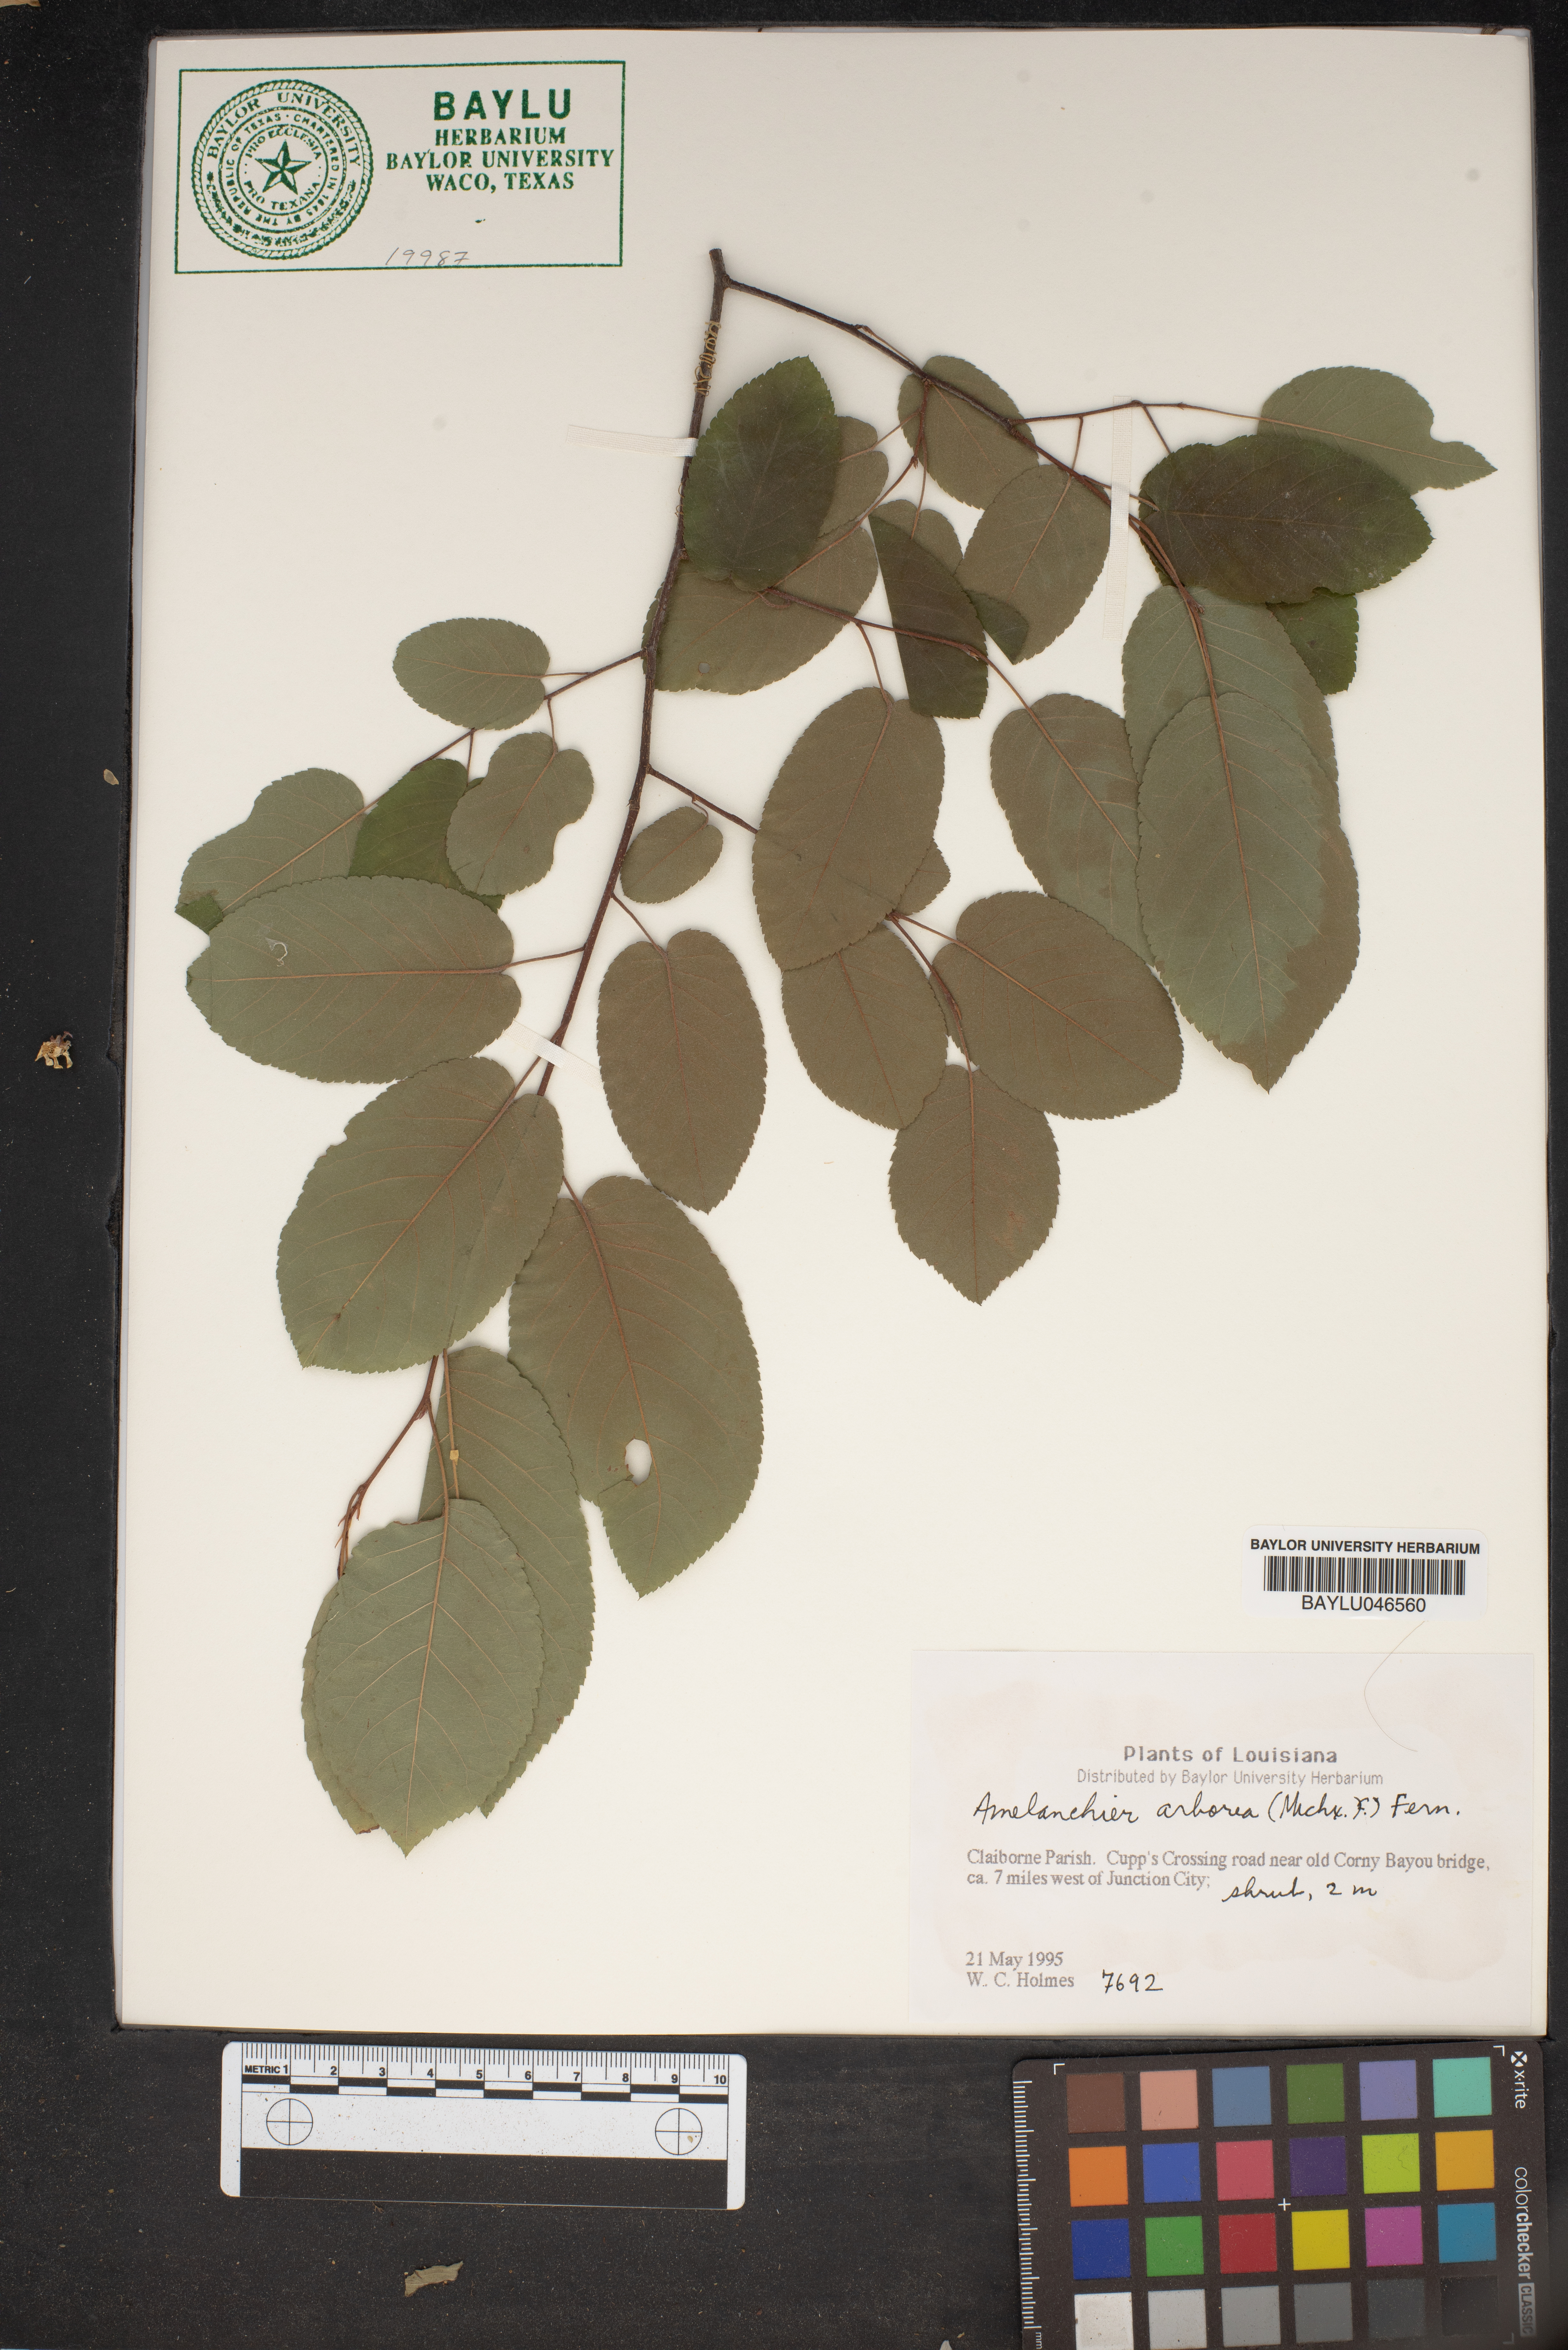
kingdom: Plantae
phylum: Tracheophyta
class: Magnoliopsida
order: Rosales
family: Rosaceae
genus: Amelanchier
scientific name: Amelanchier arborea
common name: Downy serviceberry
